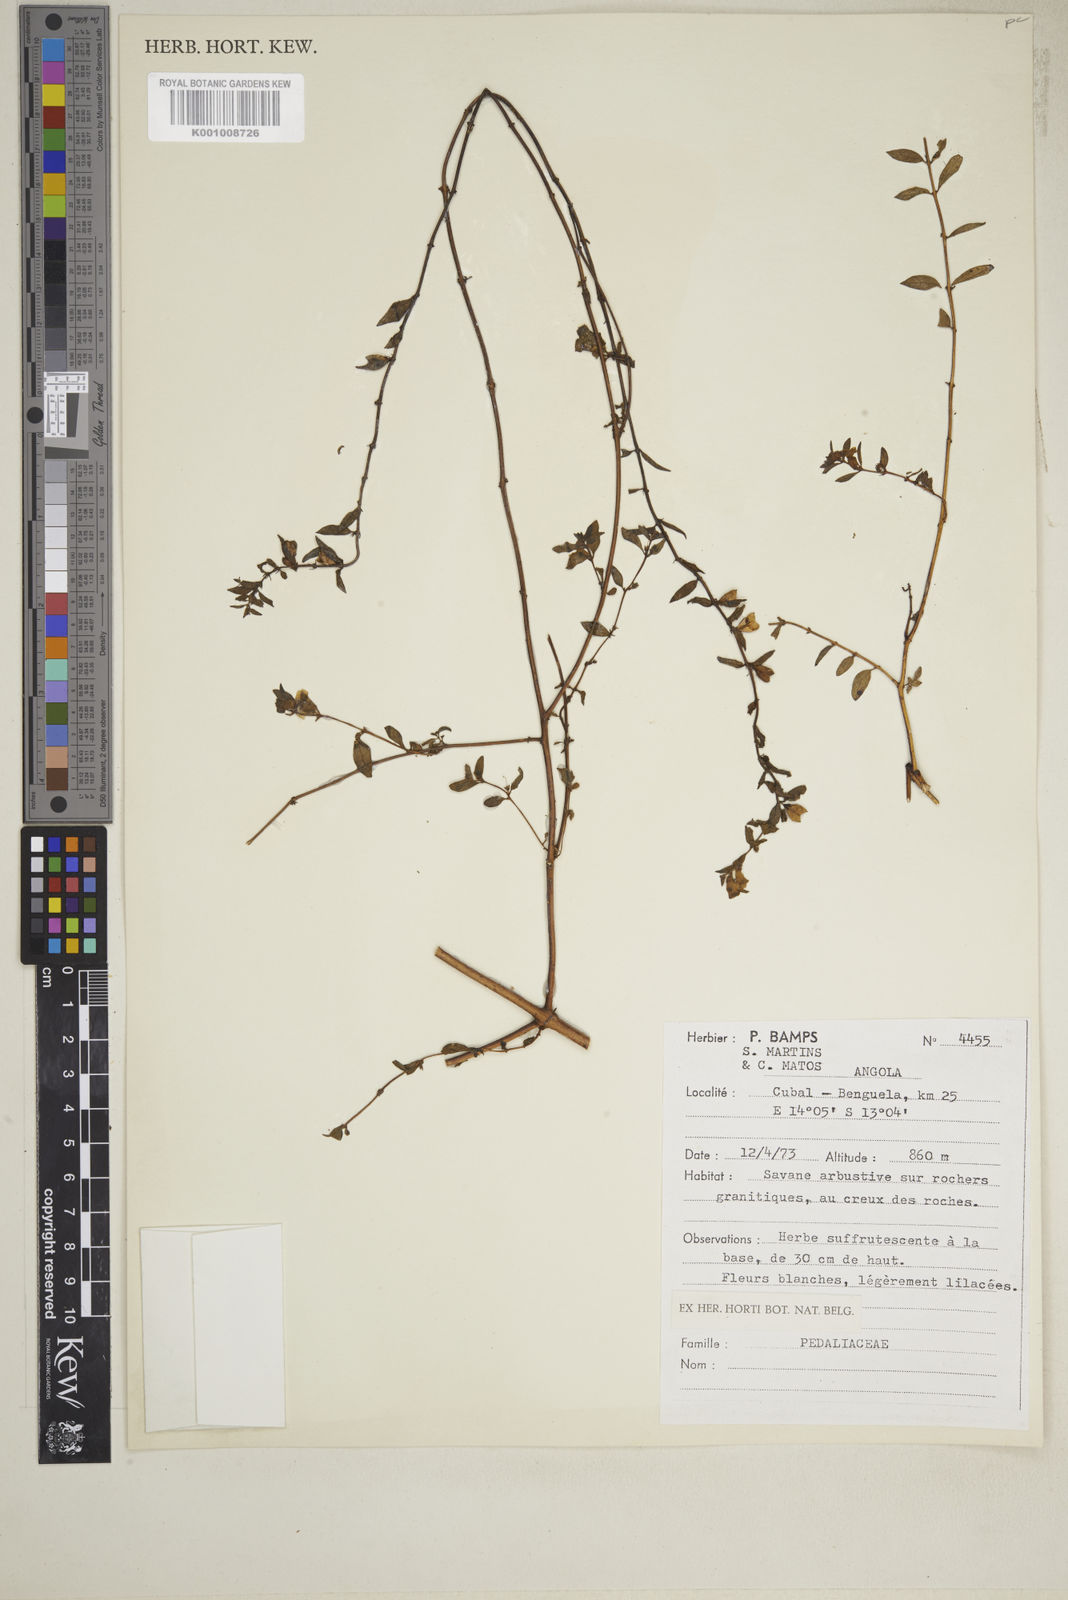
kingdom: Plantae
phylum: Tracheophyta
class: Magnoliopsida
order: Lamiales
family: Pedaliaceae
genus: Sesamum
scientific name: Sesamum integribracteatum
